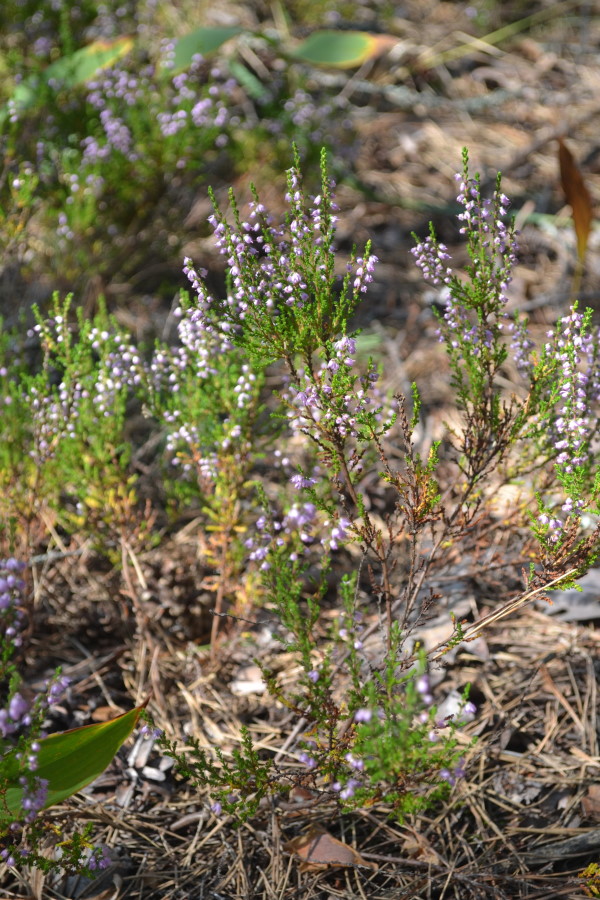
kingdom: Plantae
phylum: Tracheophyta
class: Magnoliopsida
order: Ericales
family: Ericaceae
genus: Calluna
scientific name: Calluna vulgaris
